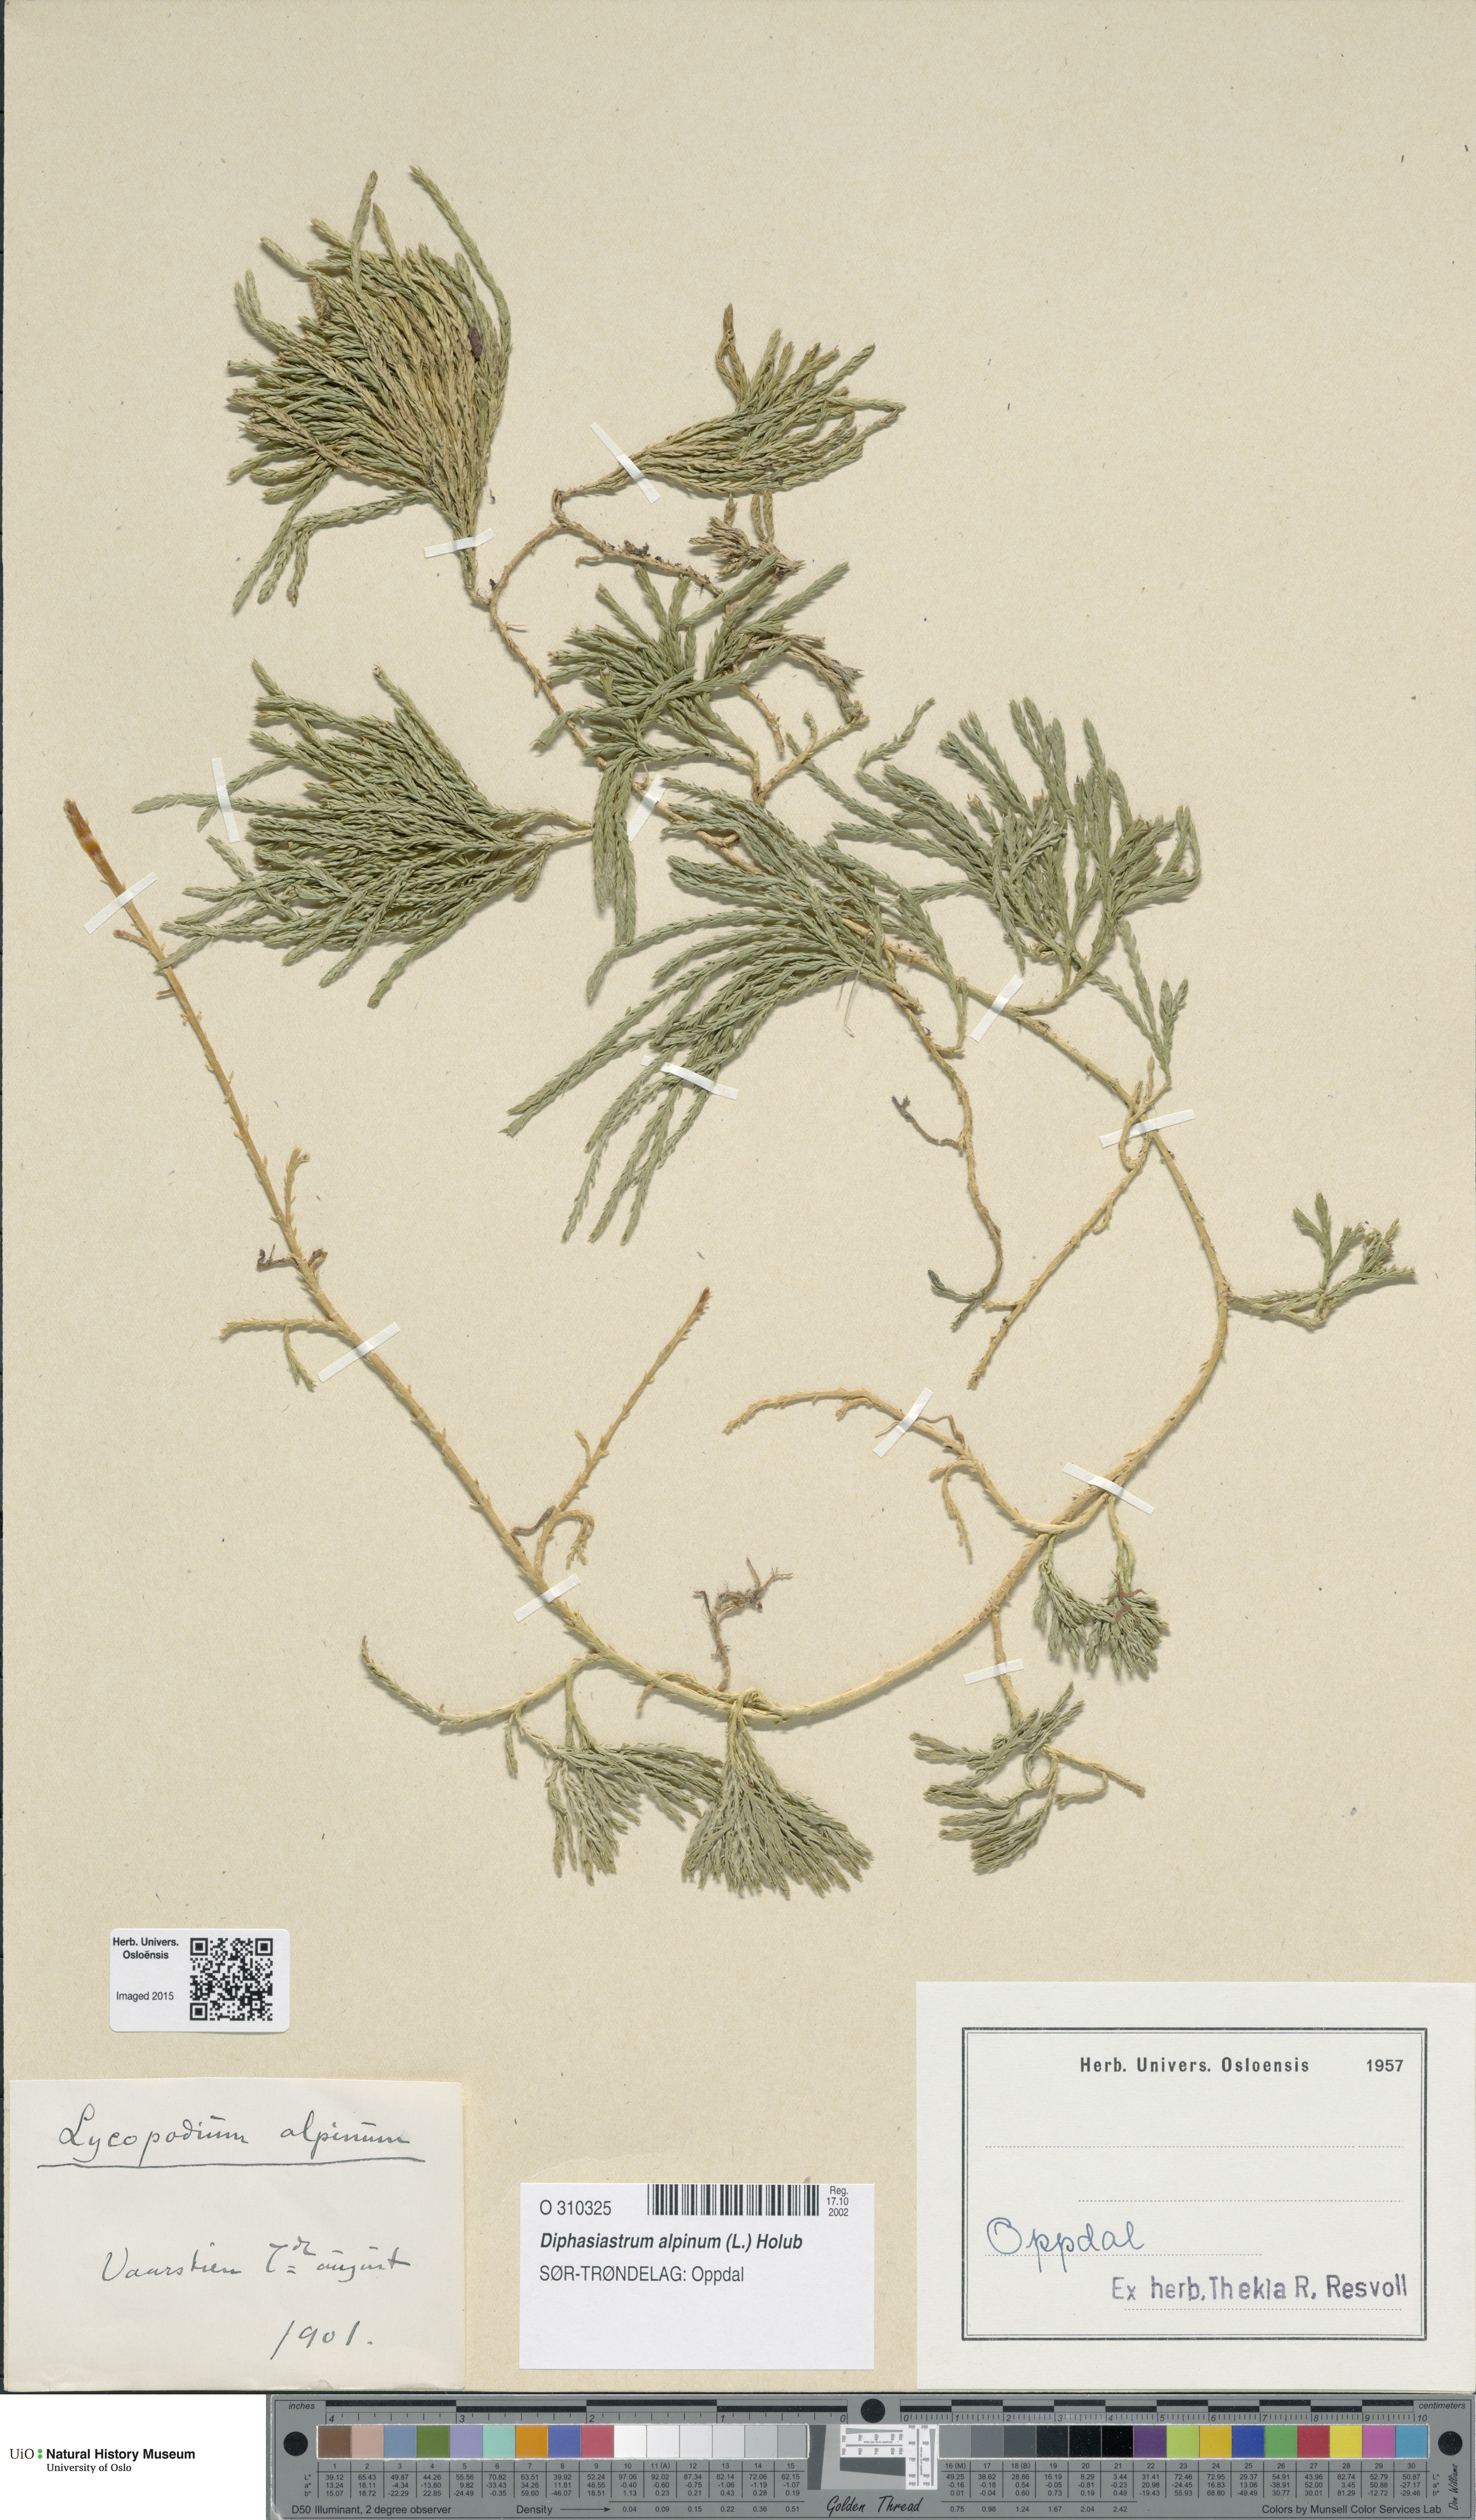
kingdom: Plantae
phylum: Tracheophyta
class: Lycopodiopsida
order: Lycopodiales
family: Lycopodiaceae
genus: Diphasiastrum
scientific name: Diphasiastrum alpinum
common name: Alpine clubmoss
